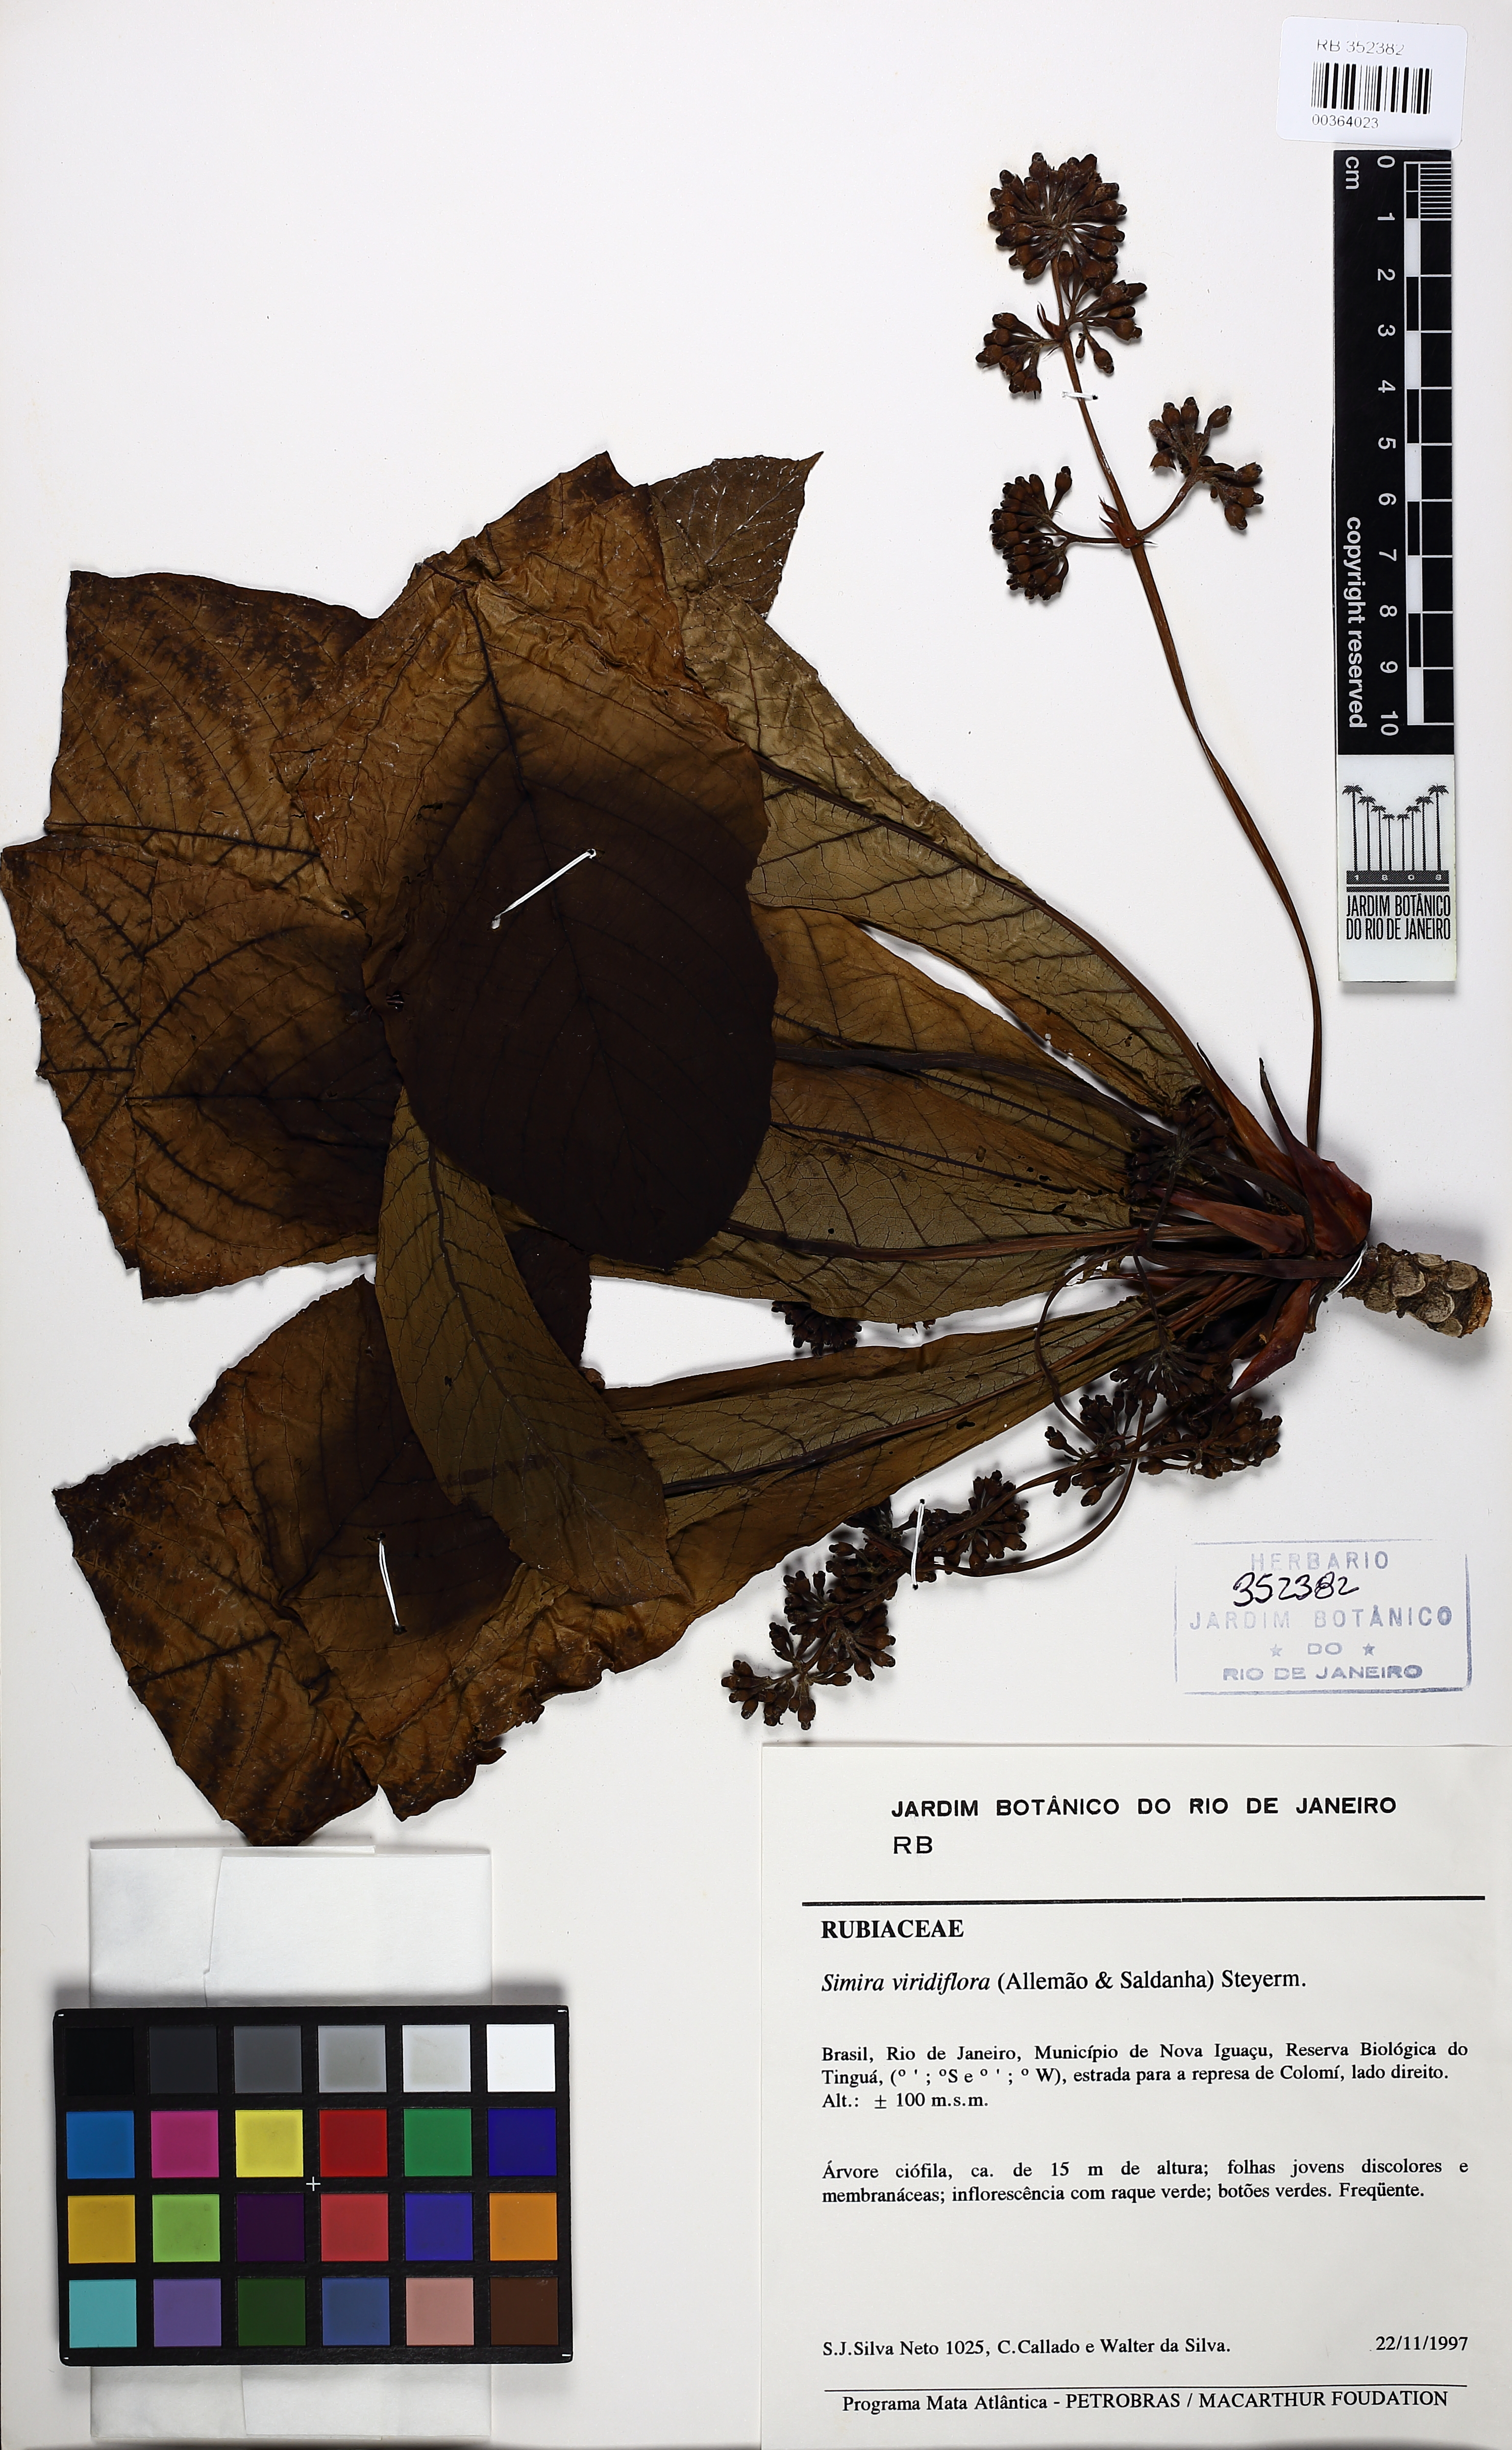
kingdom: Plantae
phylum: Tracheophyta
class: Magnoliopsida
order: Gentianales
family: Rubiaceae
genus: Simira
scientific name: Simira rubra
